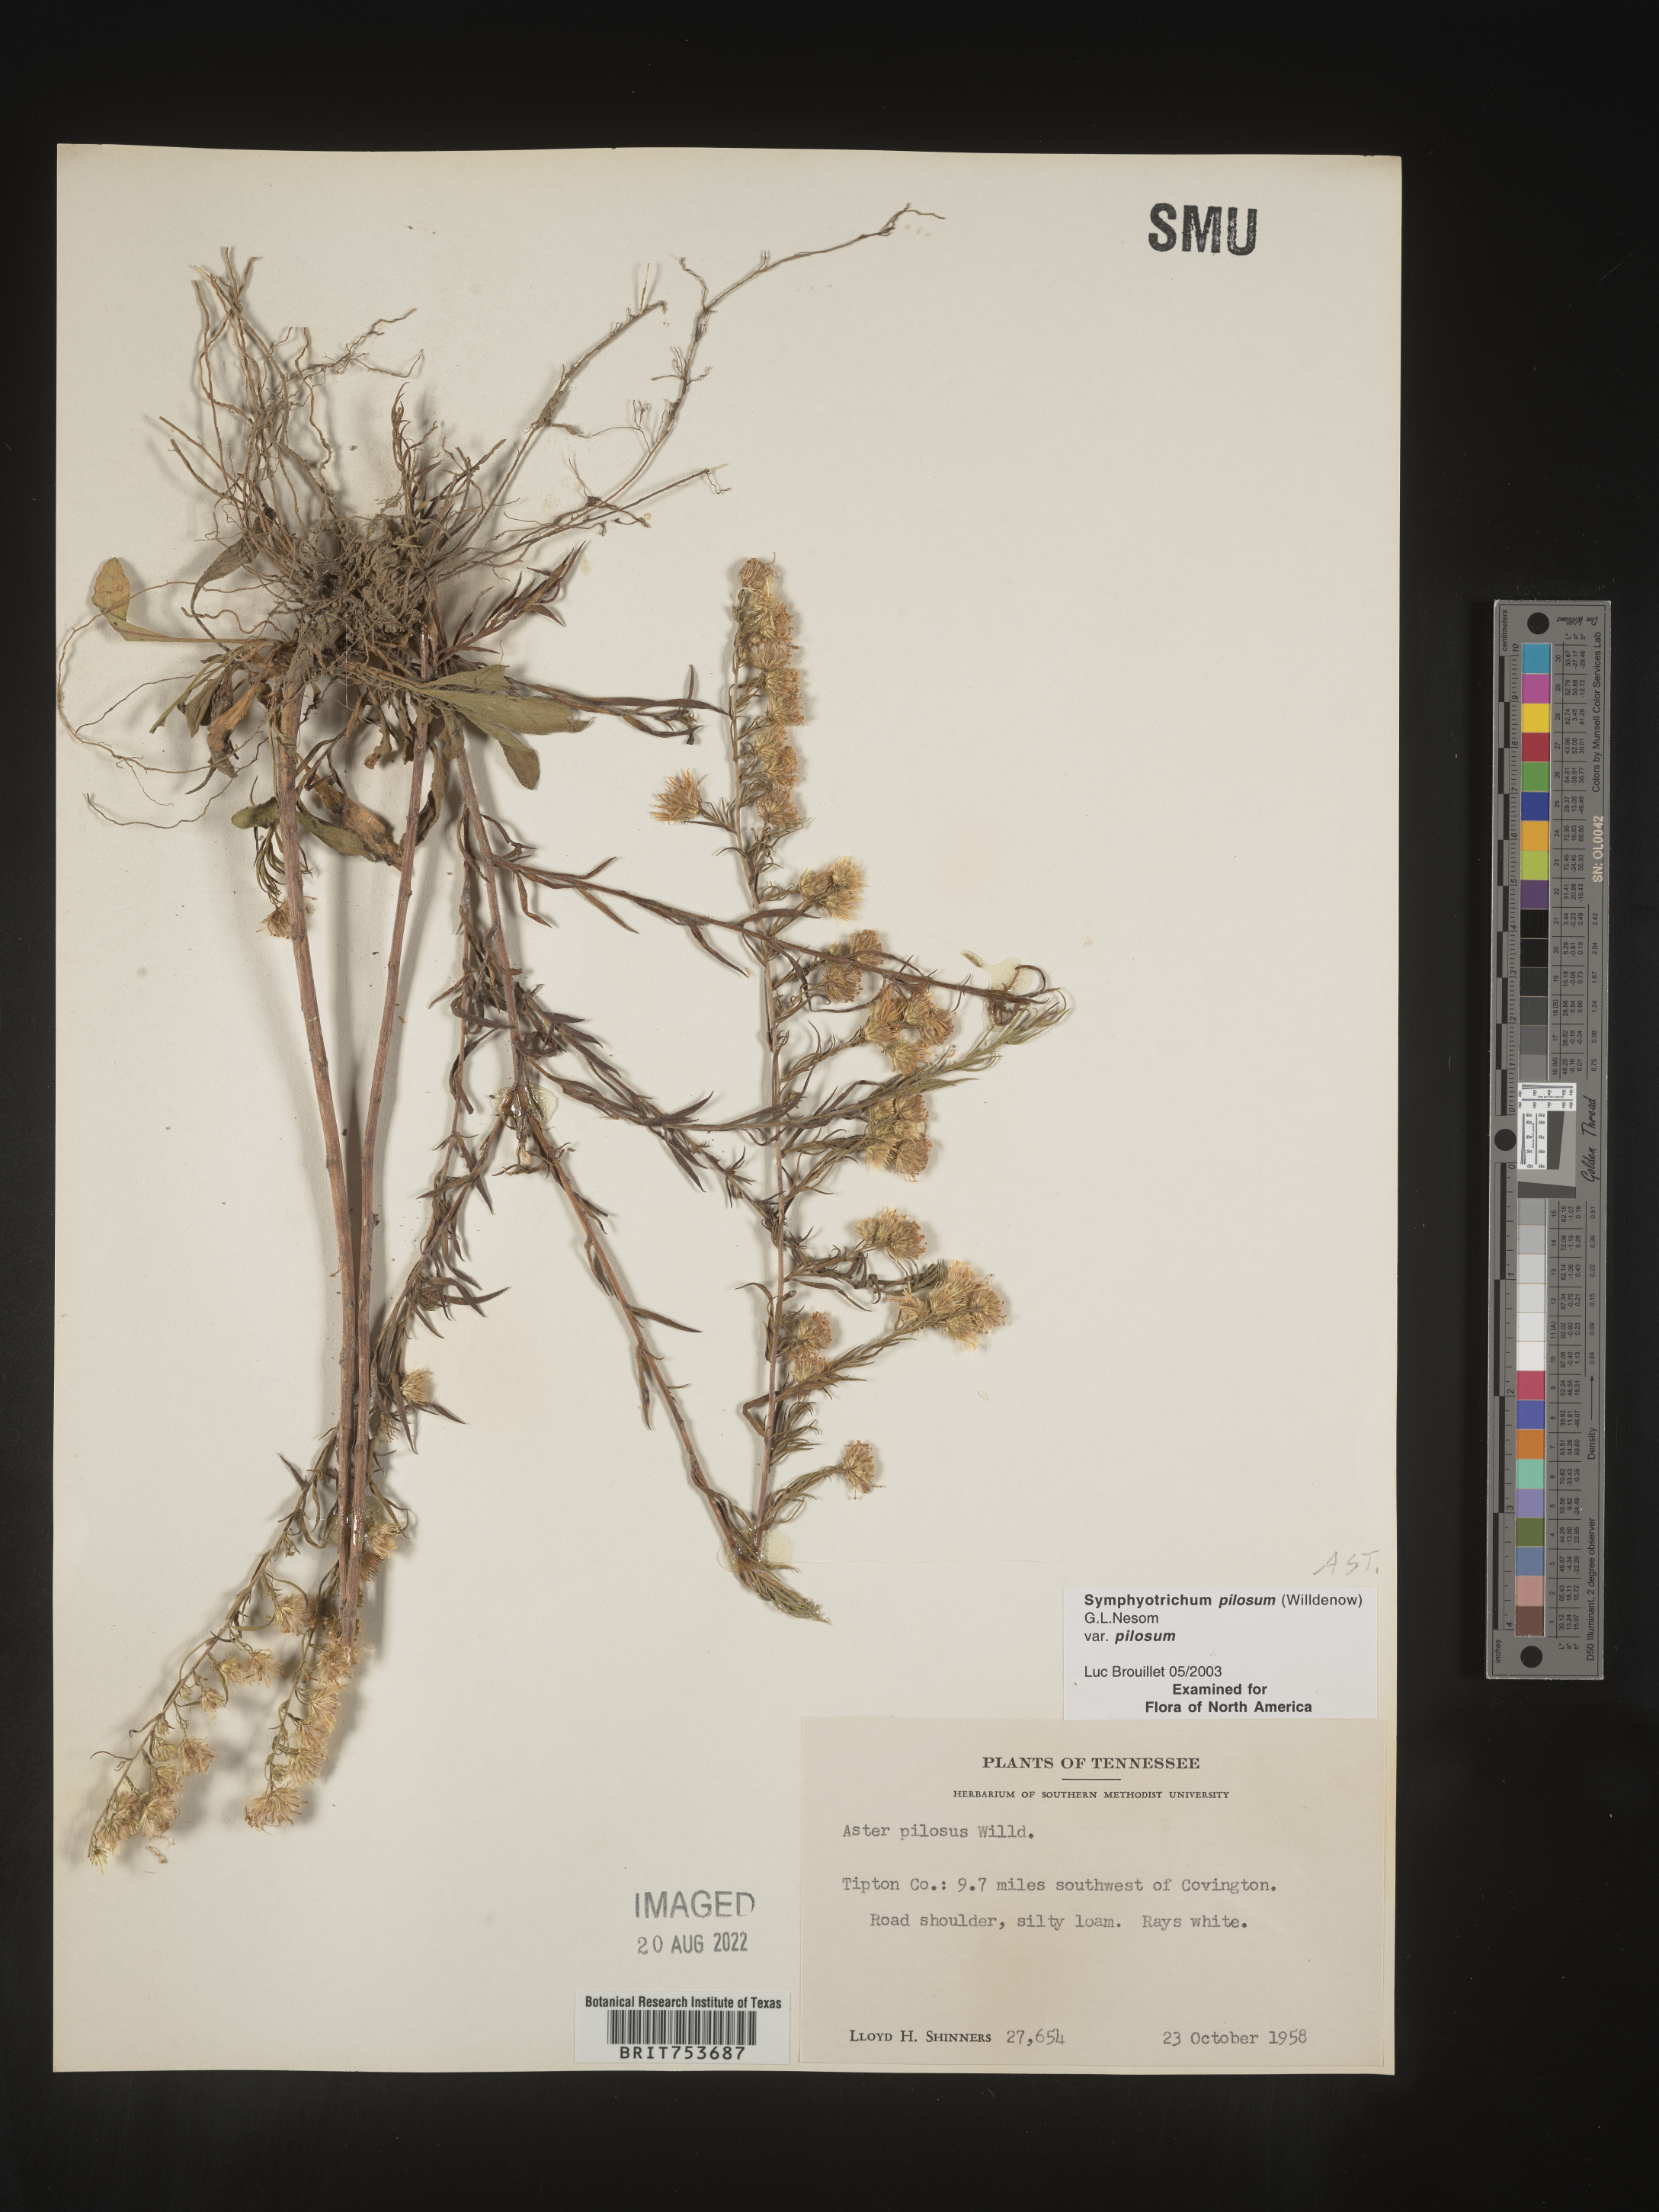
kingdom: Plantae
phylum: Tracheophyta
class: Magnoliopsida
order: Asterales
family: Asteraceae
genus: Symphyotrichum
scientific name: Symphyotrichum pilosum
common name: Awl aster
